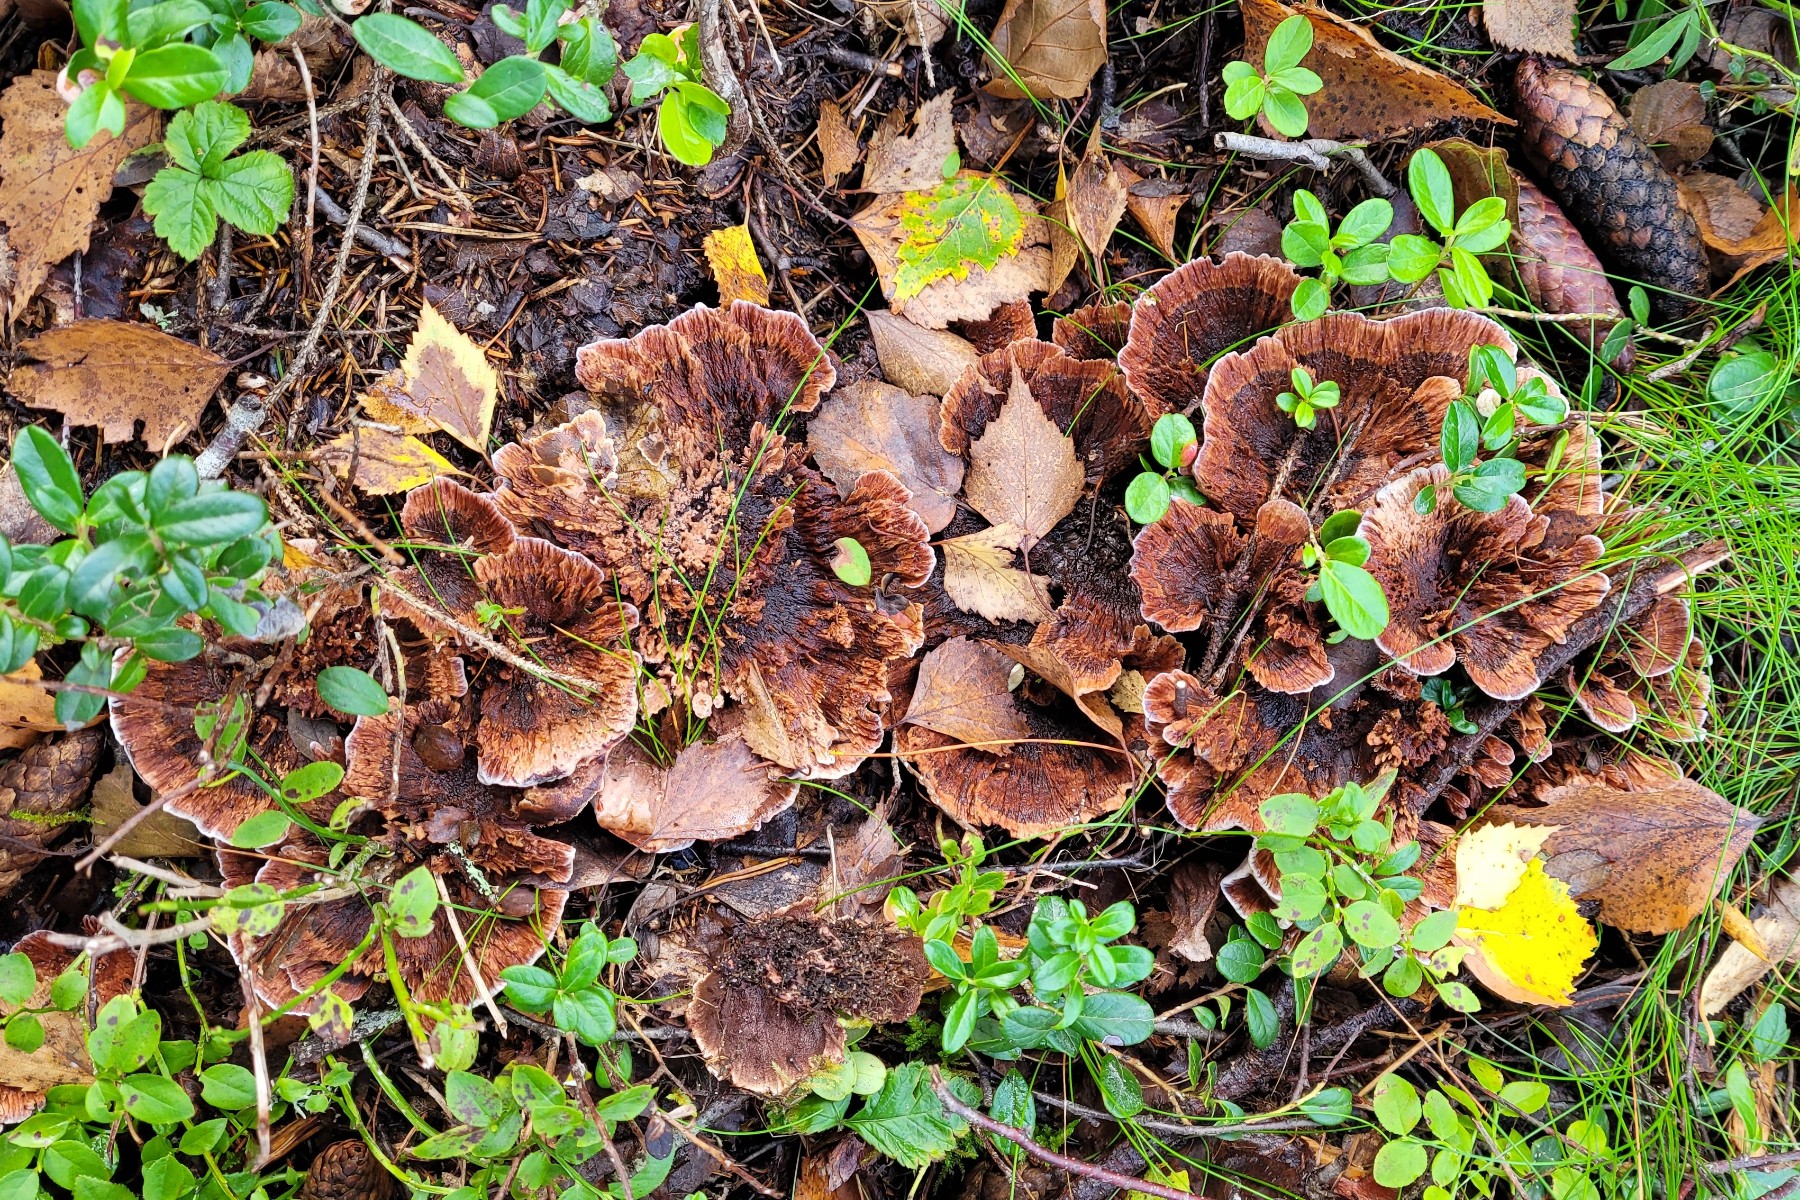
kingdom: Fungi
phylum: Basidiomycota
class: Agaricomycetes
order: Thelephorales
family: Bankeraceae
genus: Hydnellum
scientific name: Hydnellum concrescens
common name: Zoned tooth
